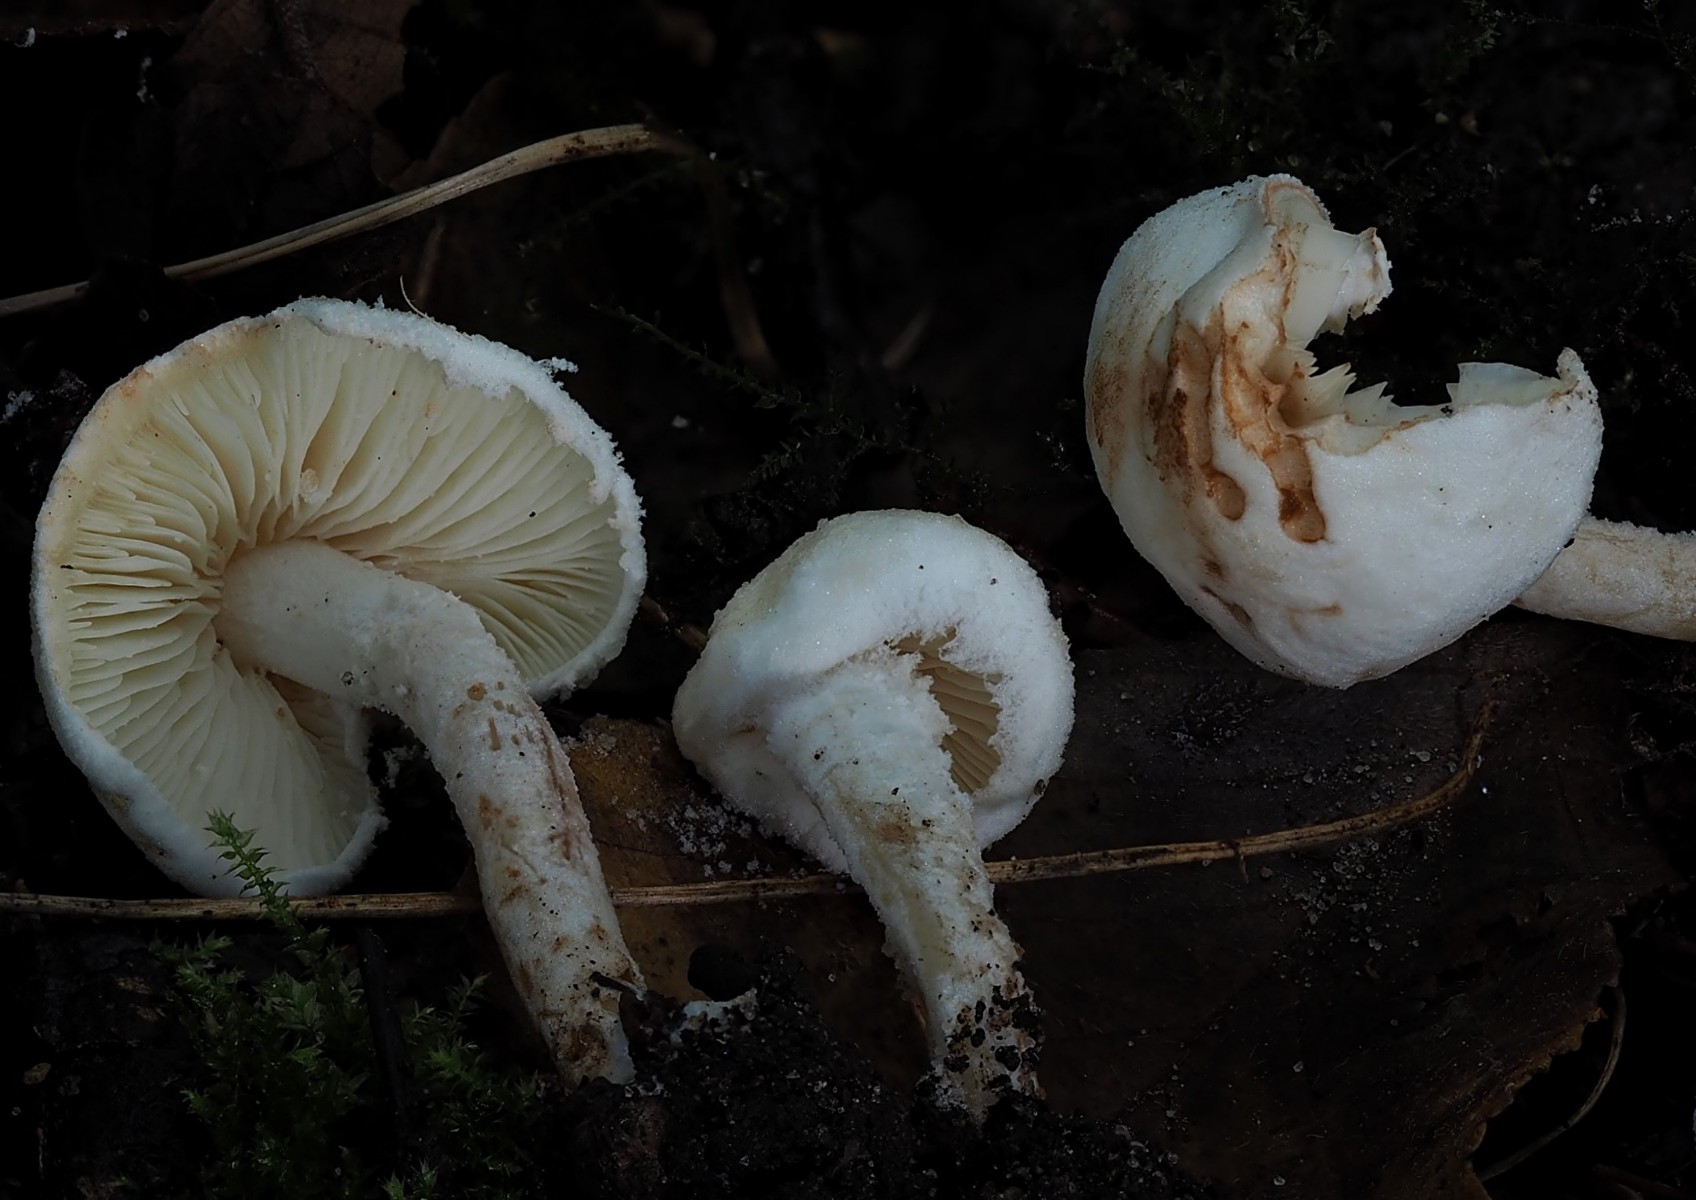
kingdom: Fungi
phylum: Basidiomycota
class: Agaricomycetes
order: Agaricales
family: Agaricaceae
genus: Cystolepiota
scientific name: Cystolepiota hetieri
